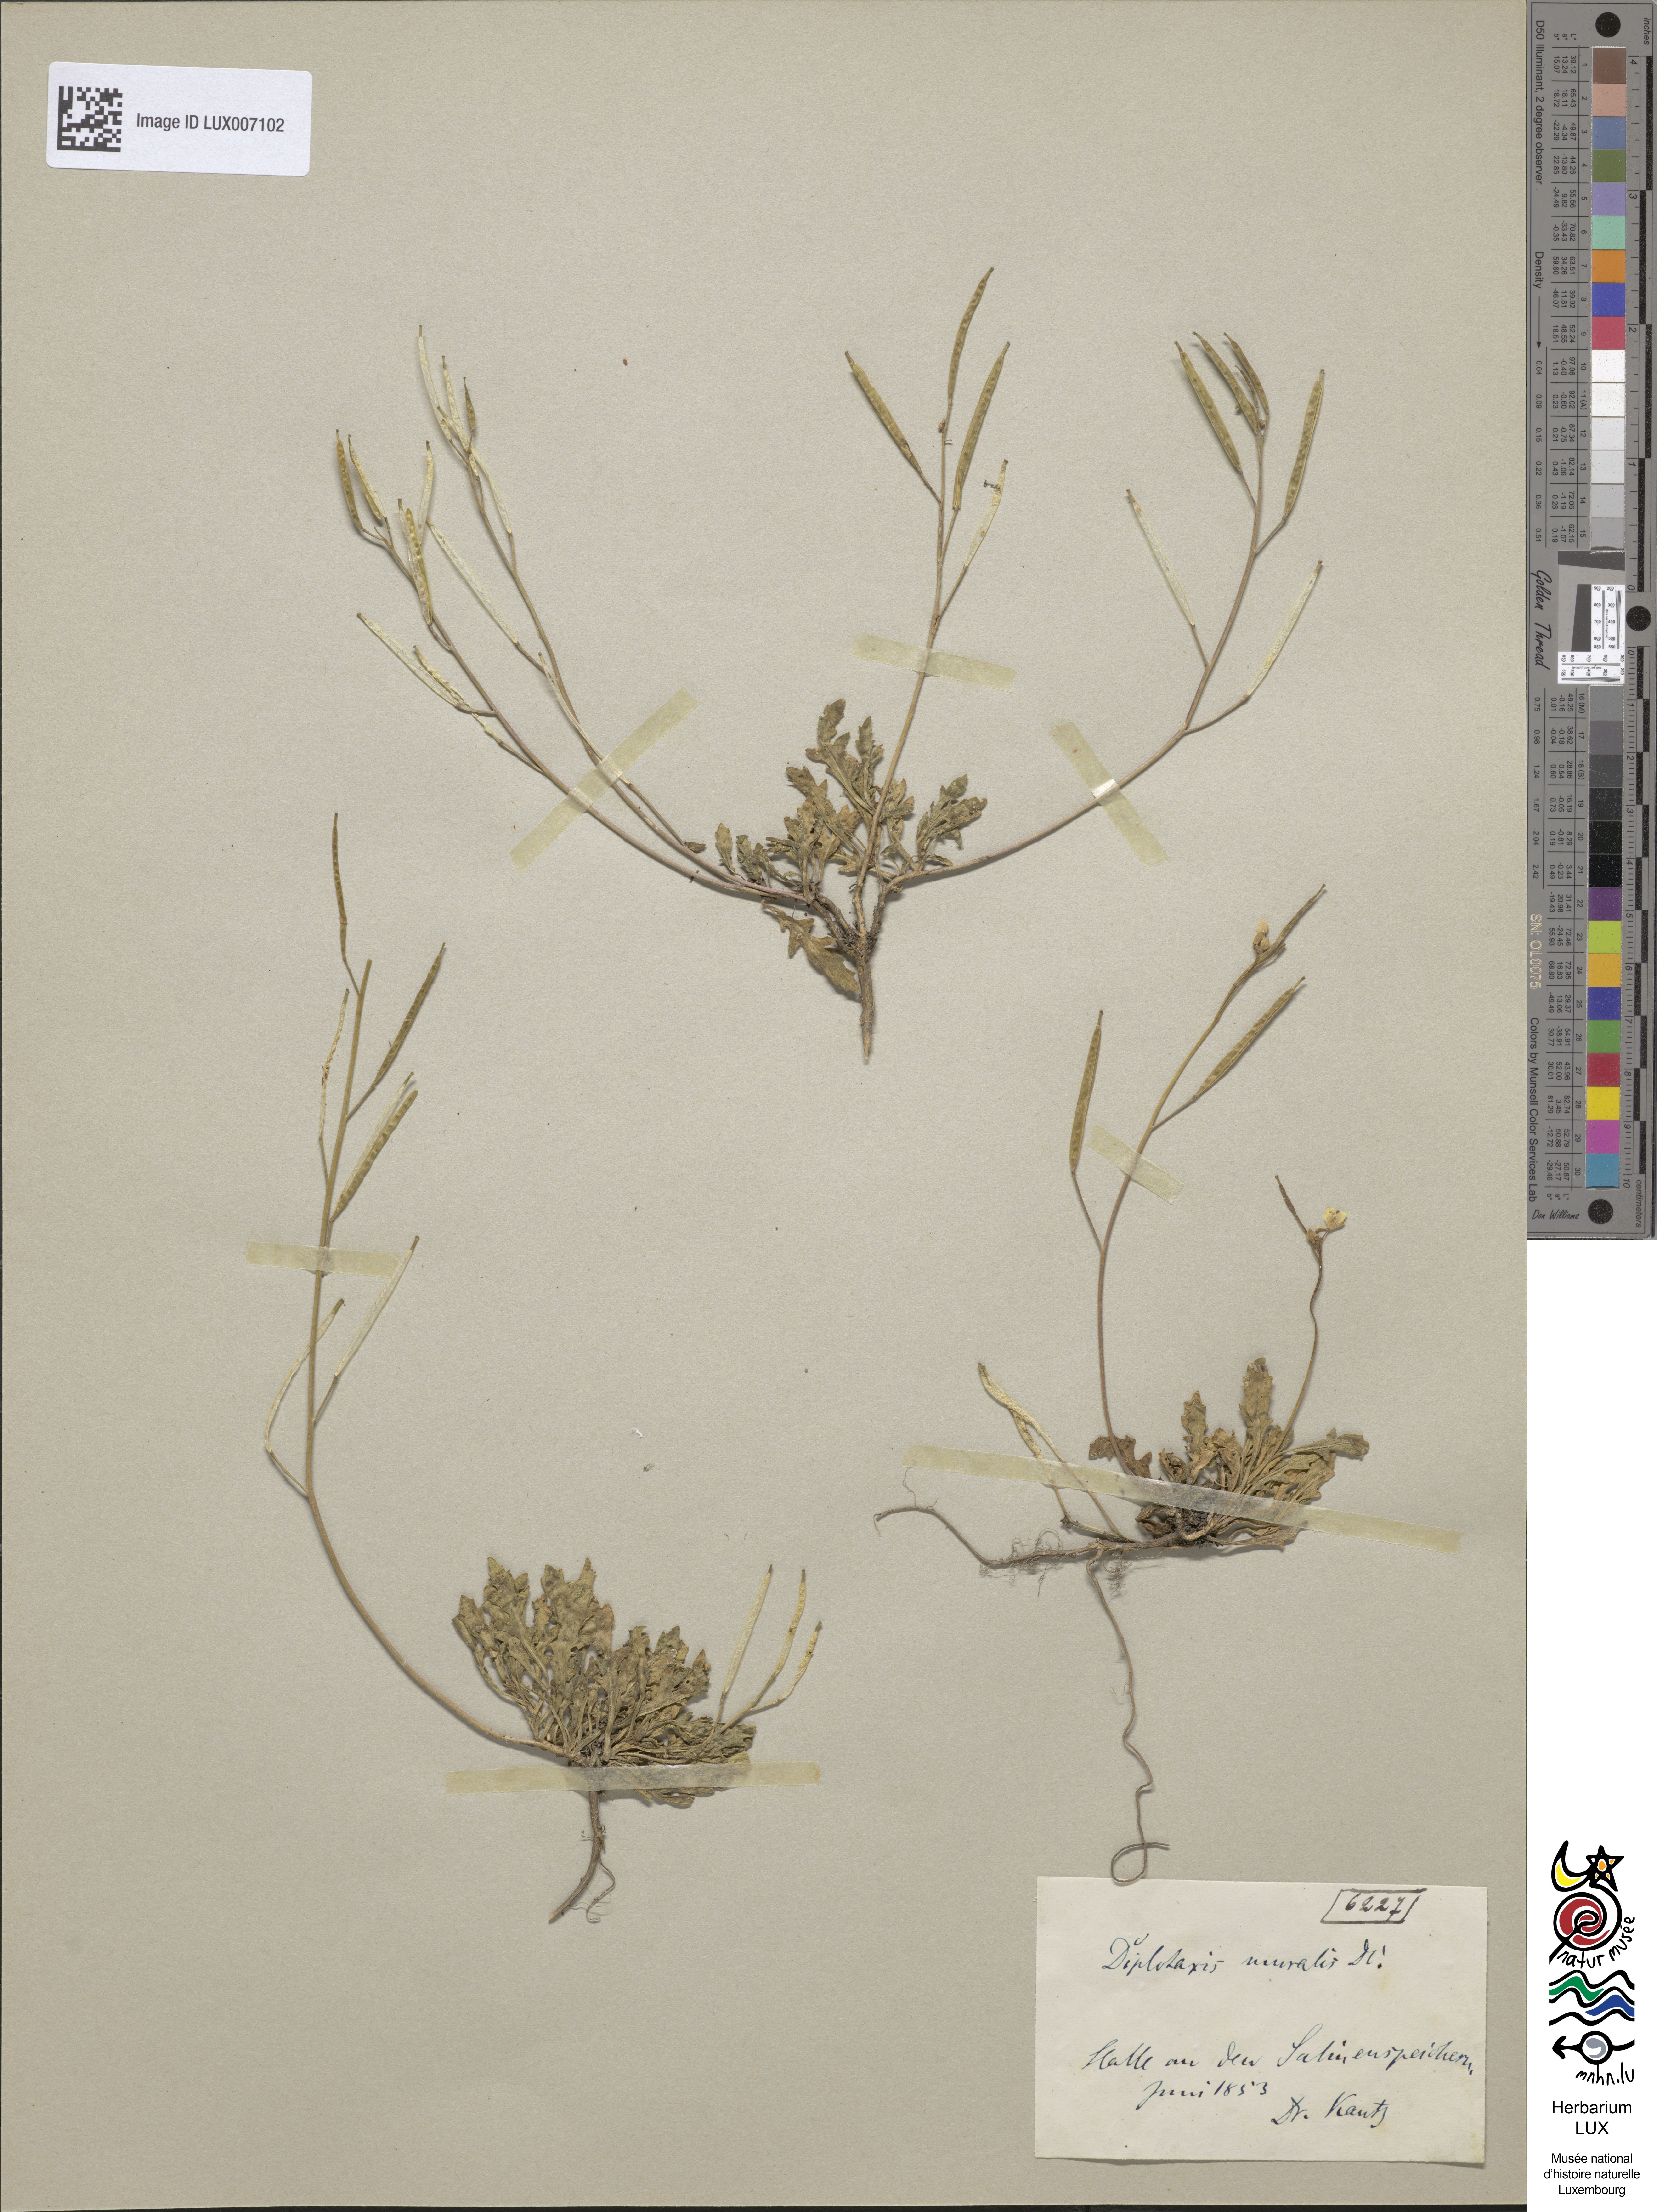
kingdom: Plantae
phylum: Tracheophyta
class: Magnoliopsida
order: Brassicales
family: Brassicaceae
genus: Diplotaxis
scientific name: Diplotaxis muralis
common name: Annual wall-rocket
